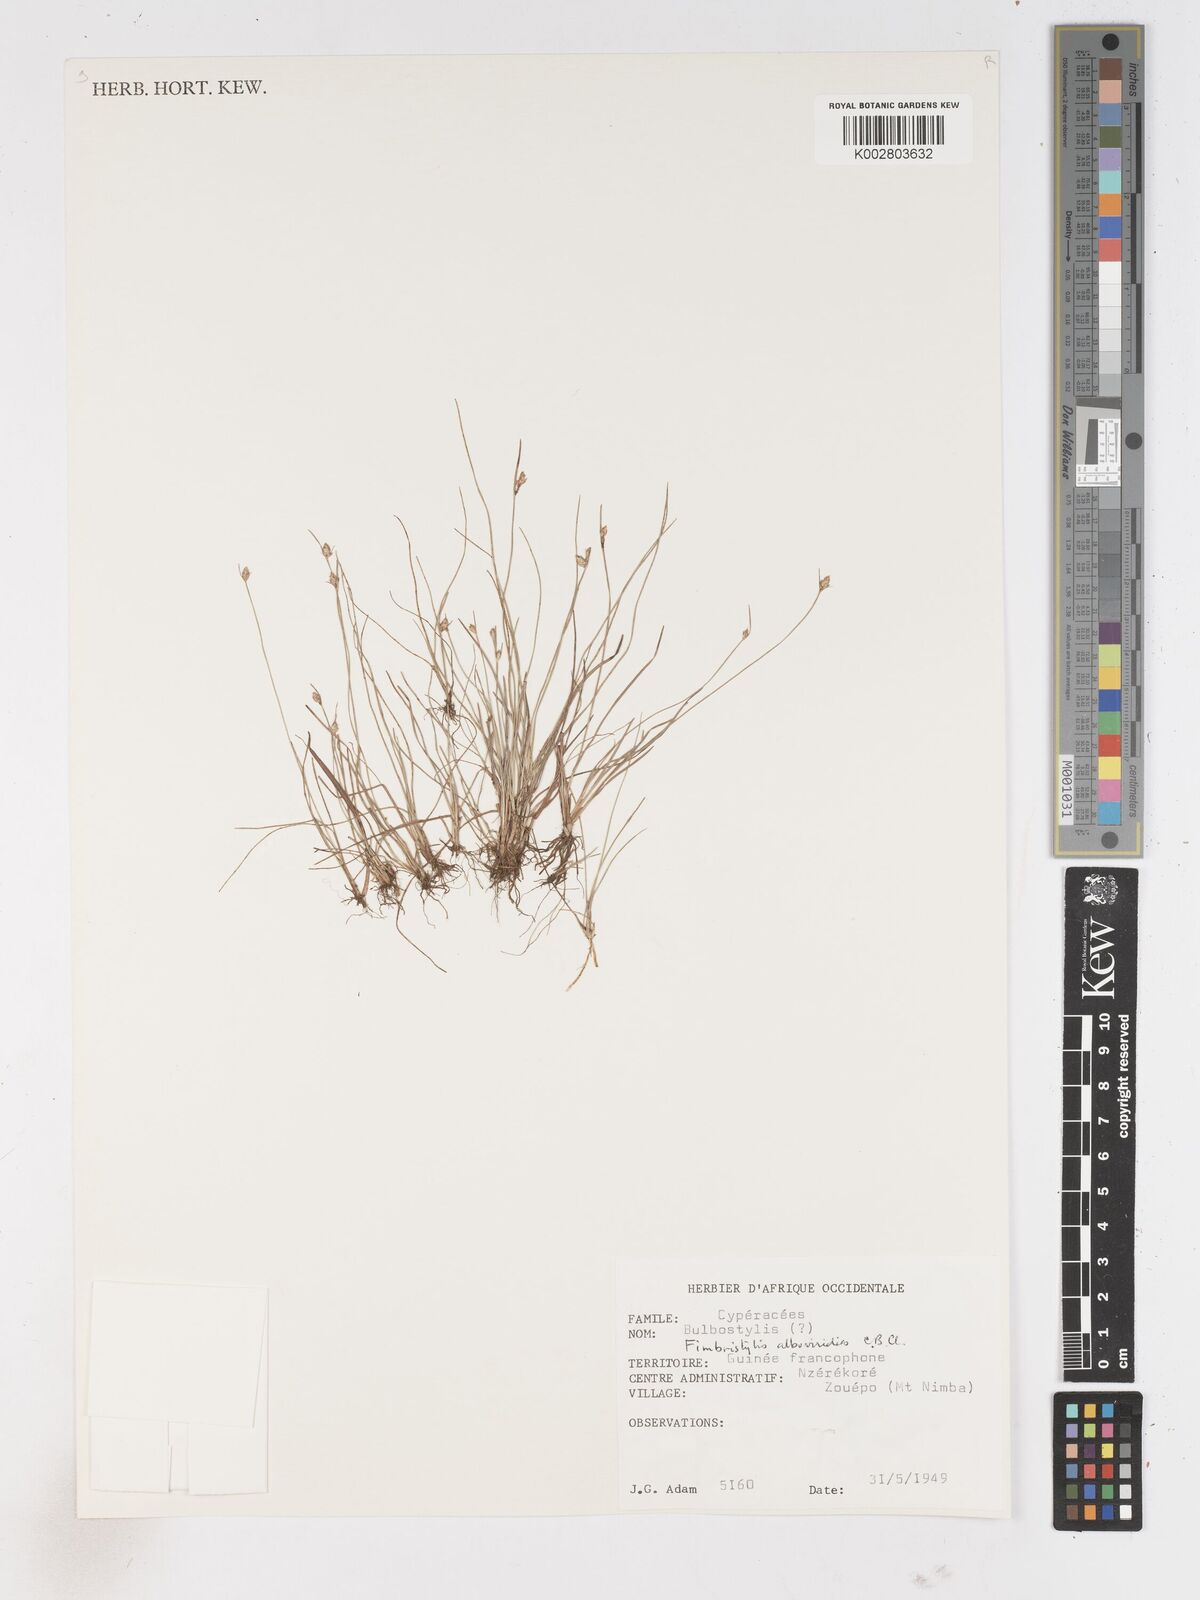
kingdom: Plantae
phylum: Tracheophyta
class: Liliopsida
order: Poales
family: Cyperaceae
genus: Fimbristylis
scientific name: Fimbristylis alboviridis
